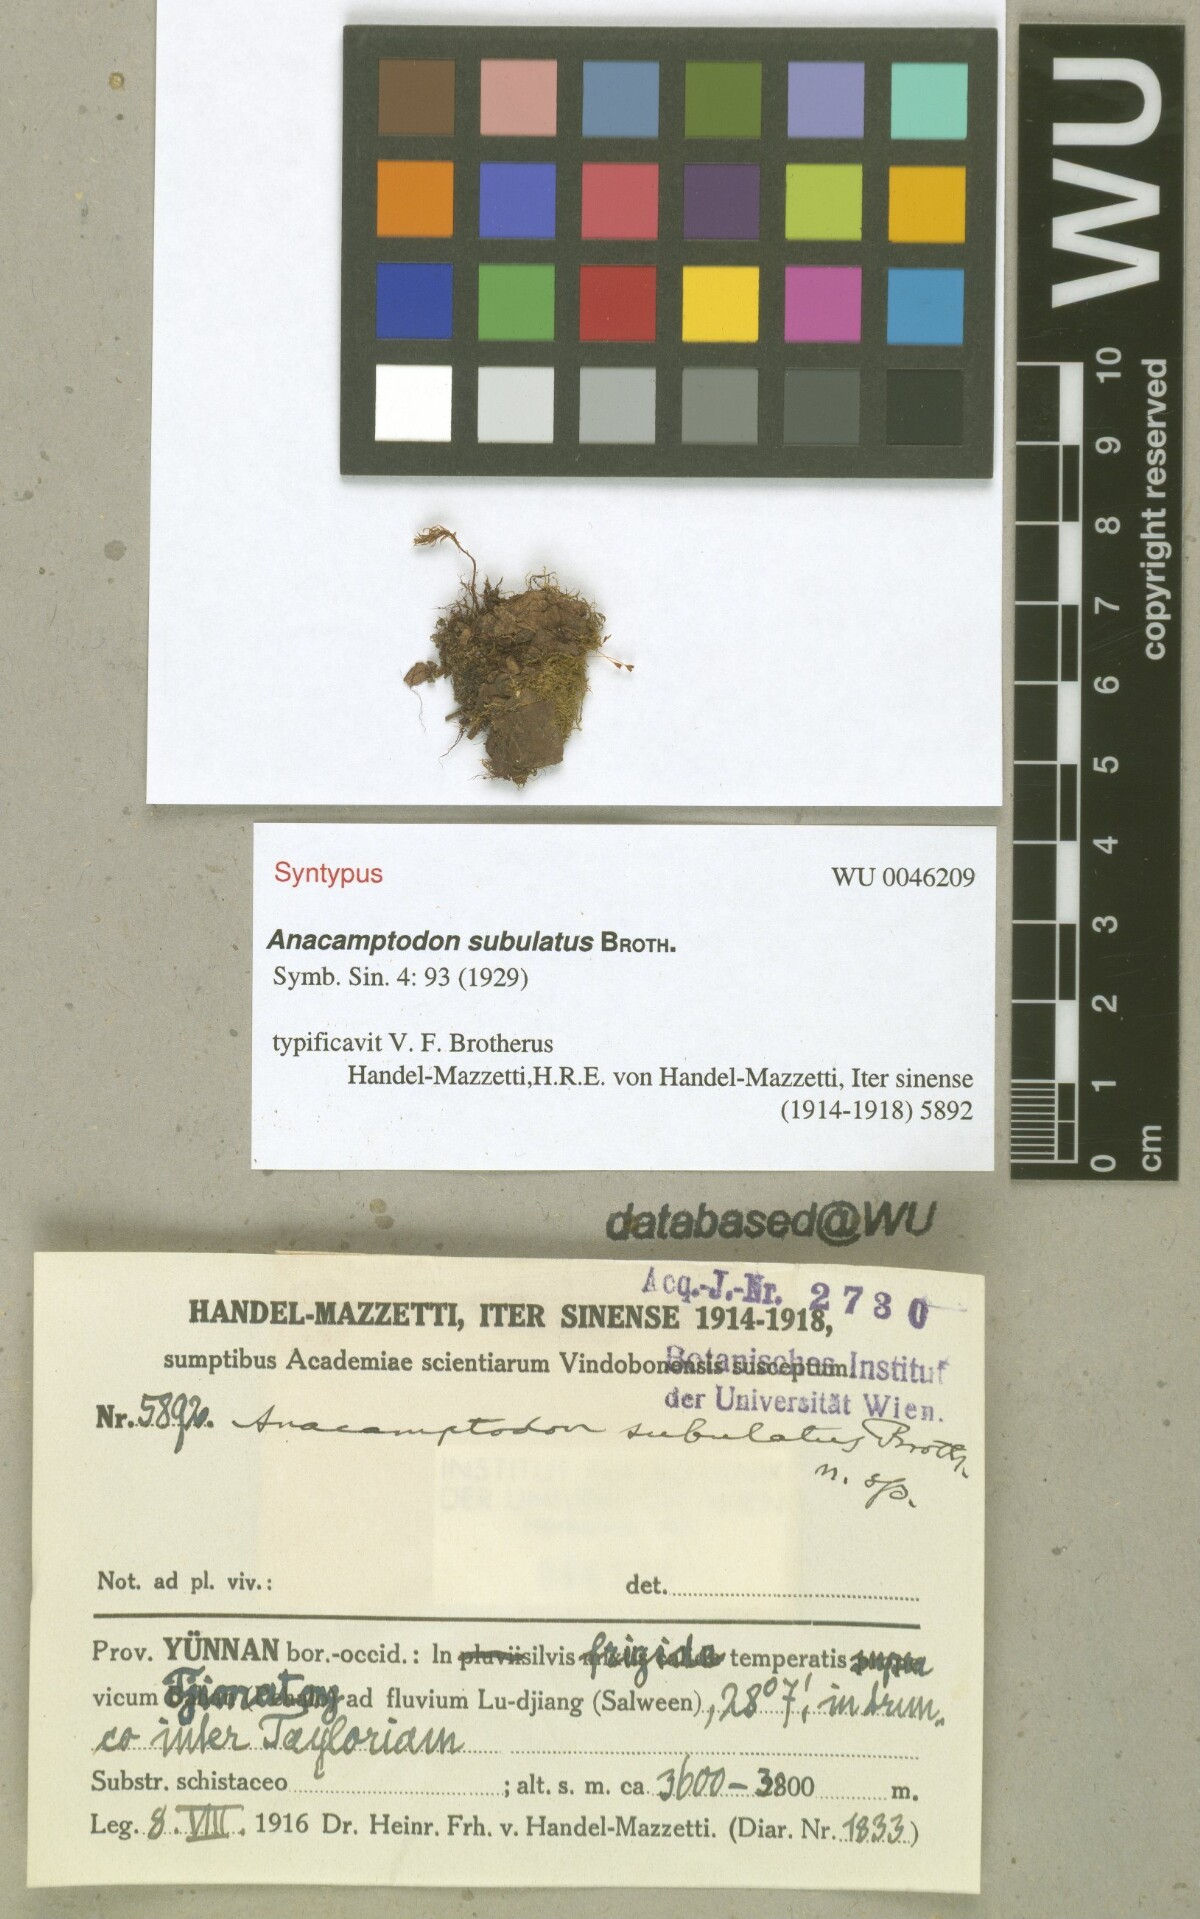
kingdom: Plantae
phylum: Bryophyta
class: Bryopsida
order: Hypnales
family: Amblystegiaceae
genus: Anacamptodon
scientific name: Anacamptodon latidens
